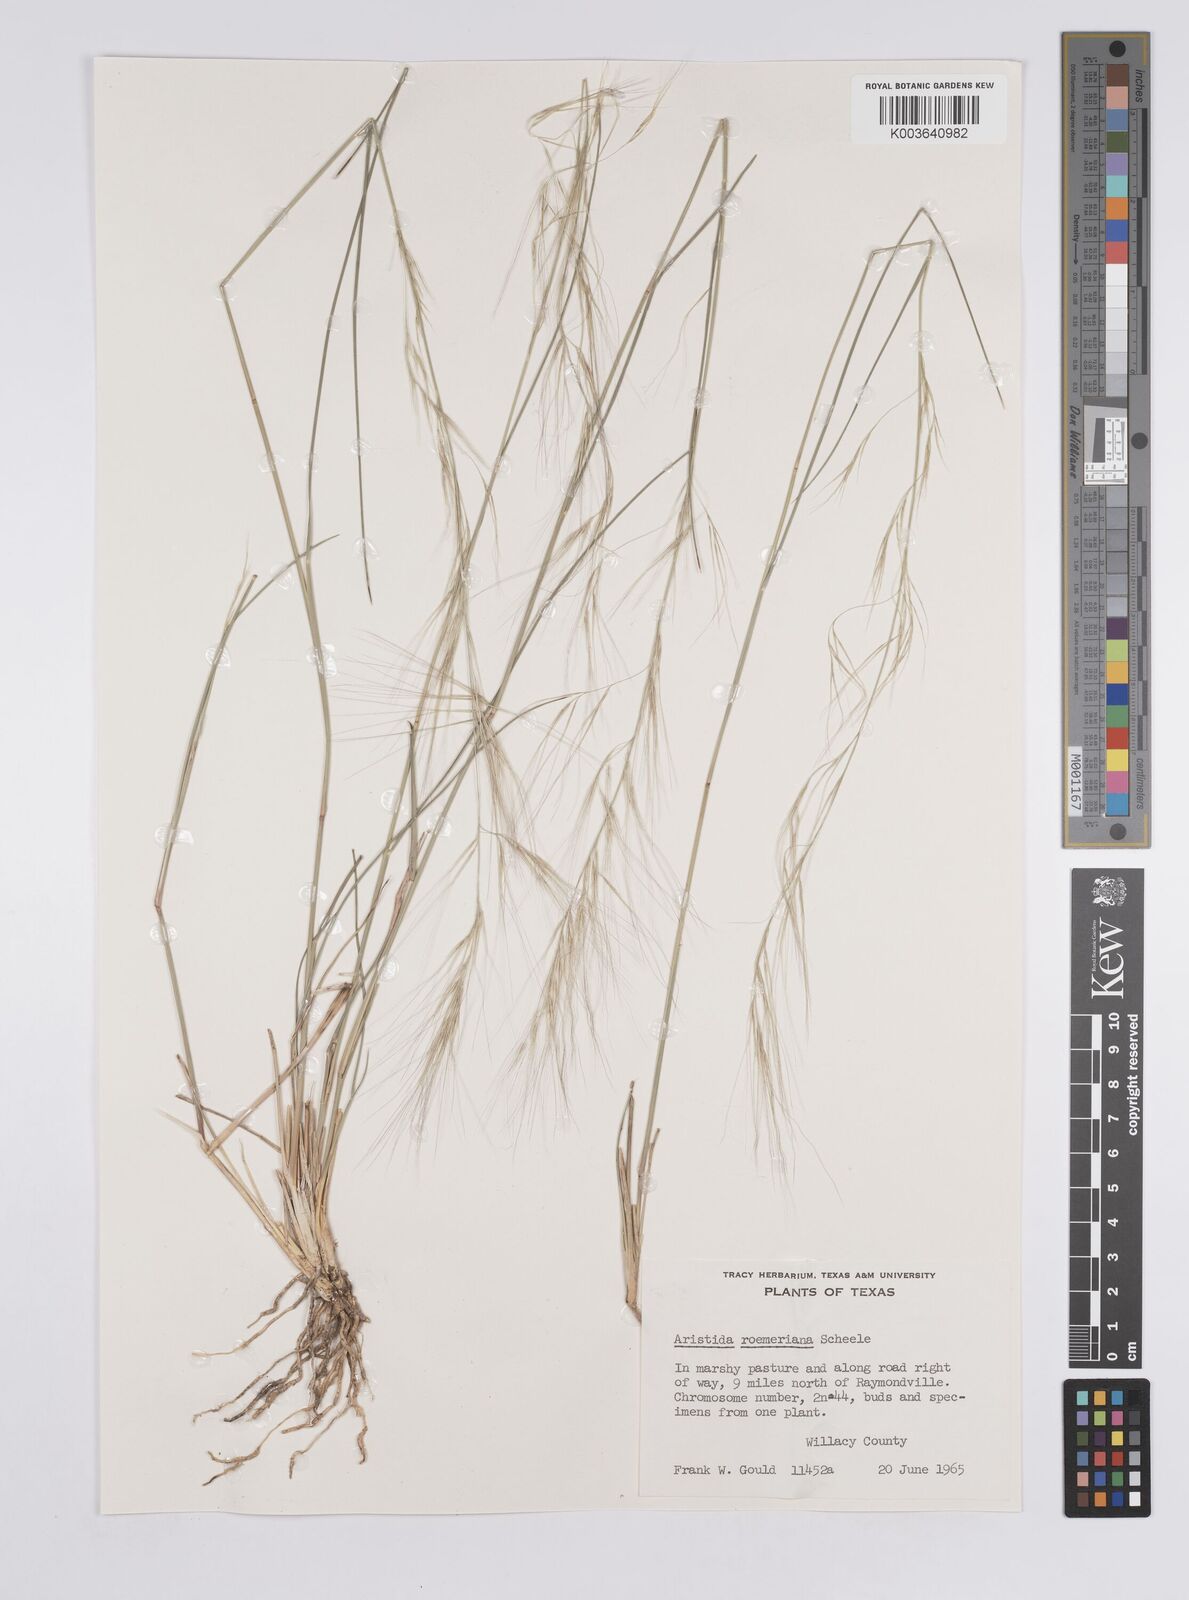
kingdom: Plantae
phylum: Tracheophyta
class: Liliopsida
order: Poales
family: Poaceae
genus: Aristida
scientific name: Aristida purpurea
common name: Purple threeawn
